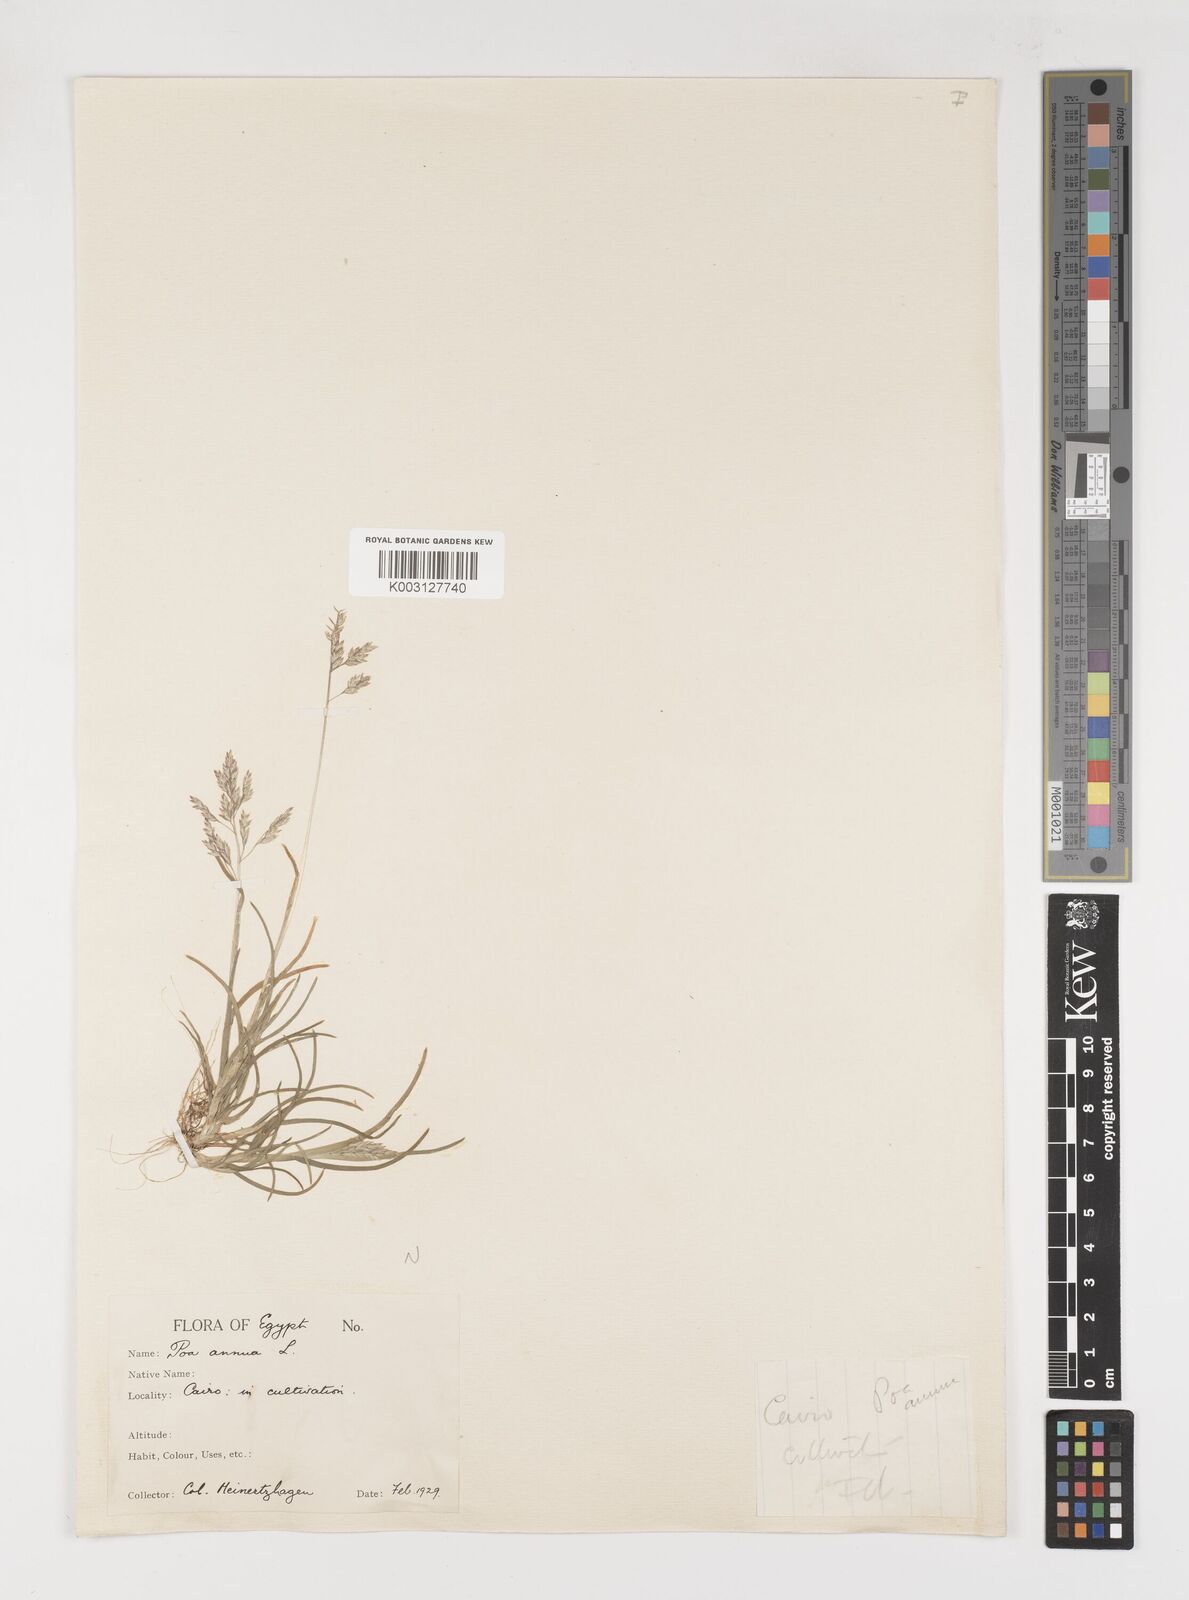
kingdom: Plantae
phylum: Tracheophyta
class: Liliopsida
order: Poales
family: Poaceae
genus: Poa
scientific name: Poa annua
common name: Annual bluegrass
